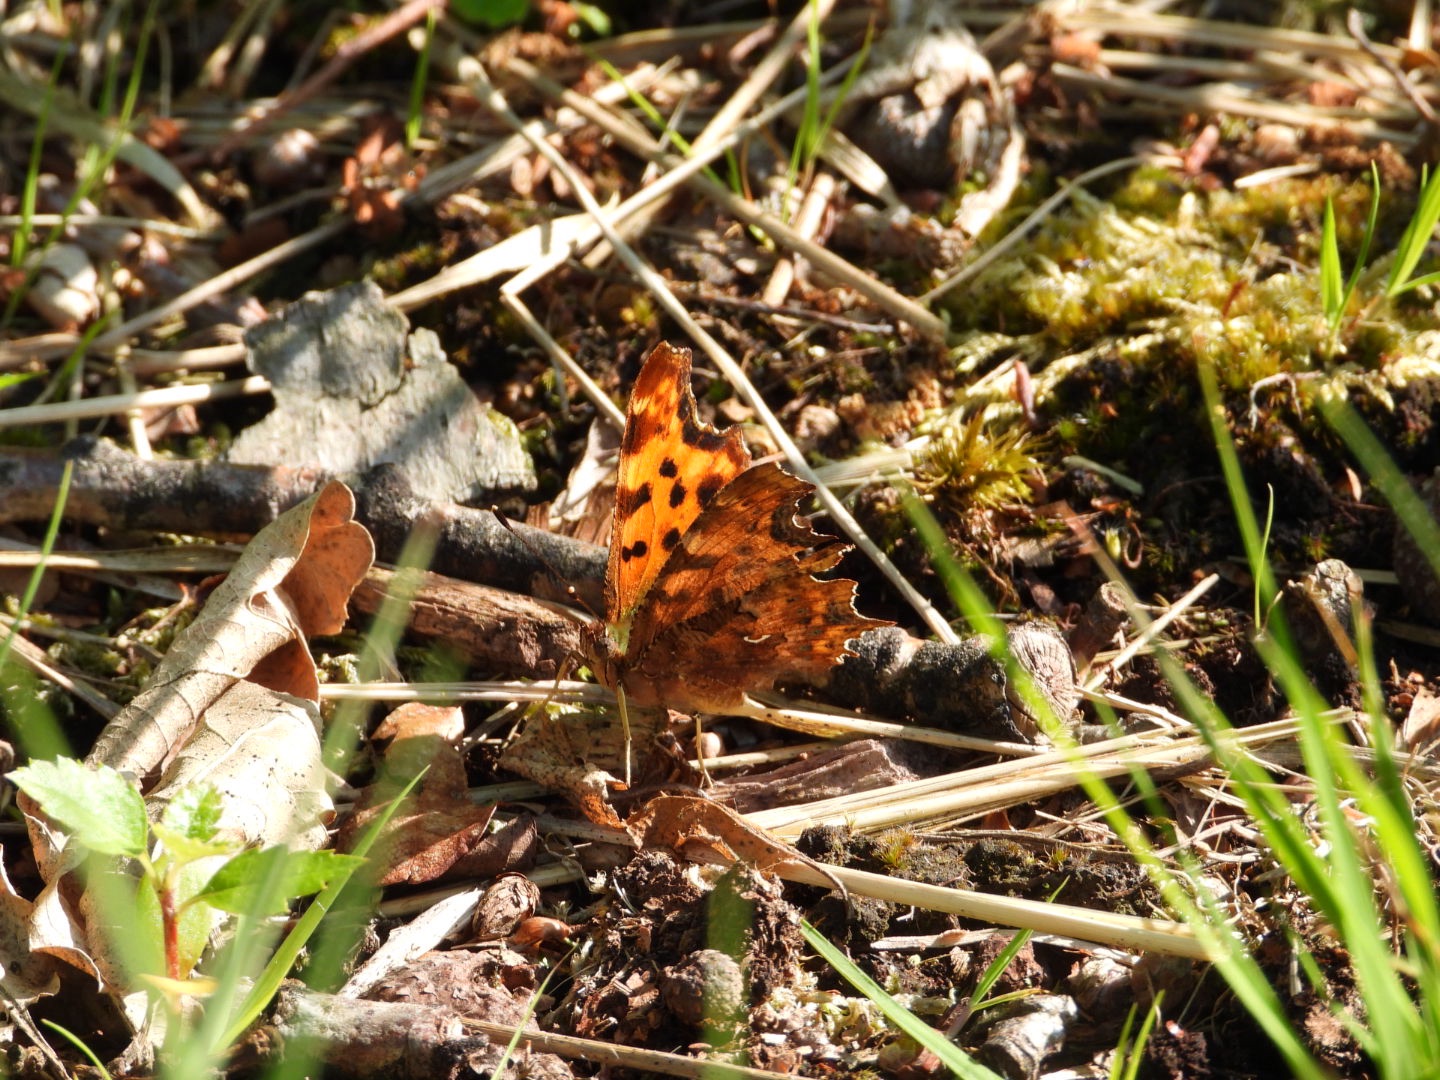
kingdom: Animalia
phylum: Arthropoda
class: Insecta
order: Lepidoptera
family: Nymphalidae
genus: Polygonia
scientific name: Polygonia c-album
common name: Det hvide C
